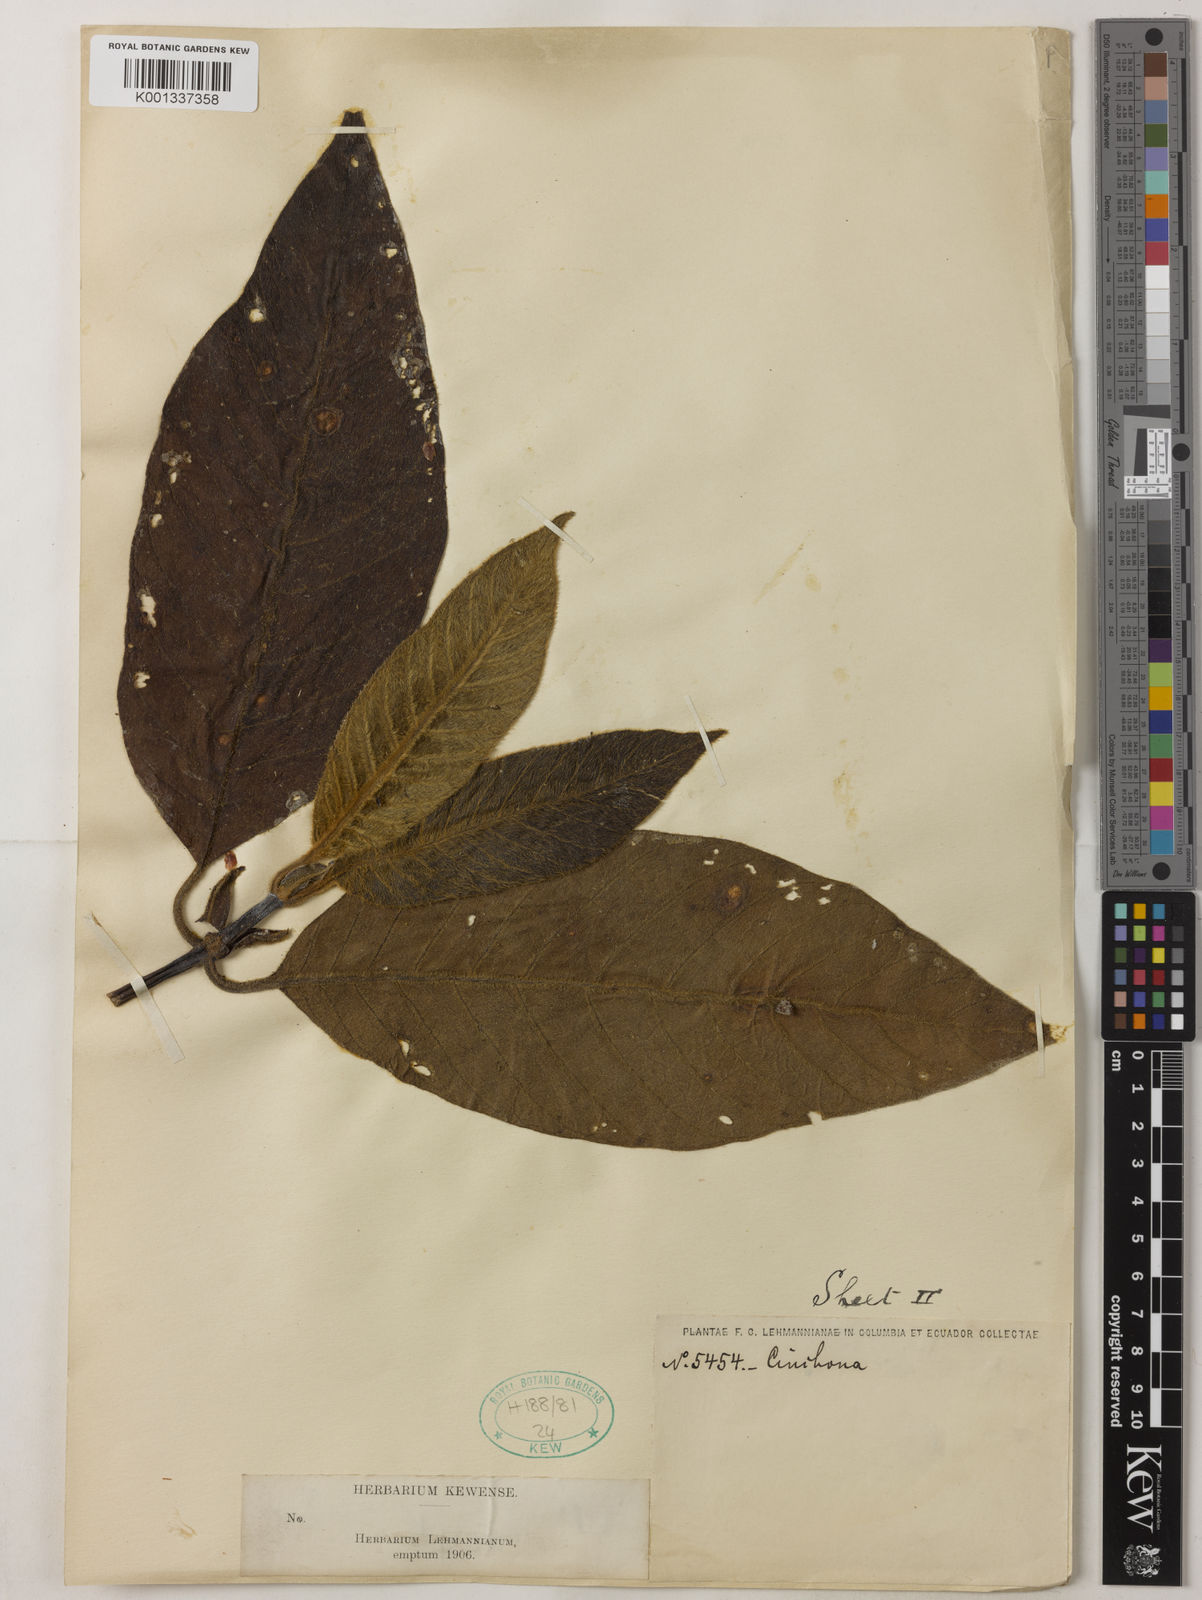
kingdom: Plantae
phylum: Tracheophyta
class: Magnoliopsida
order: Gentianales
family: Rubiaceae
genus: Cinchona
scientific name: Cinchona
